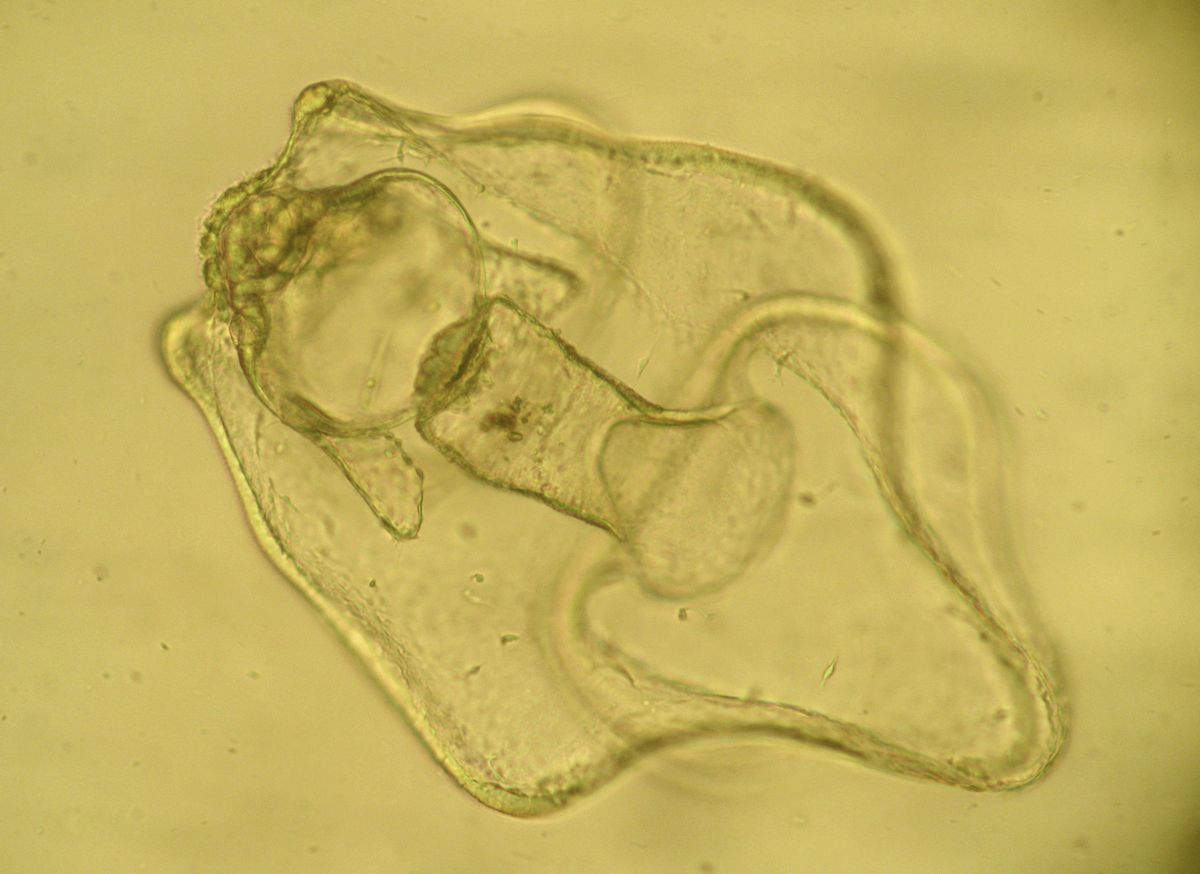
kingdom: Animalia
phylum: Echinodermata
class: Asteroidea
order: Forcipulatida
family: Asteriidae
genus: Asterias
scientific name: Asterias rubens
